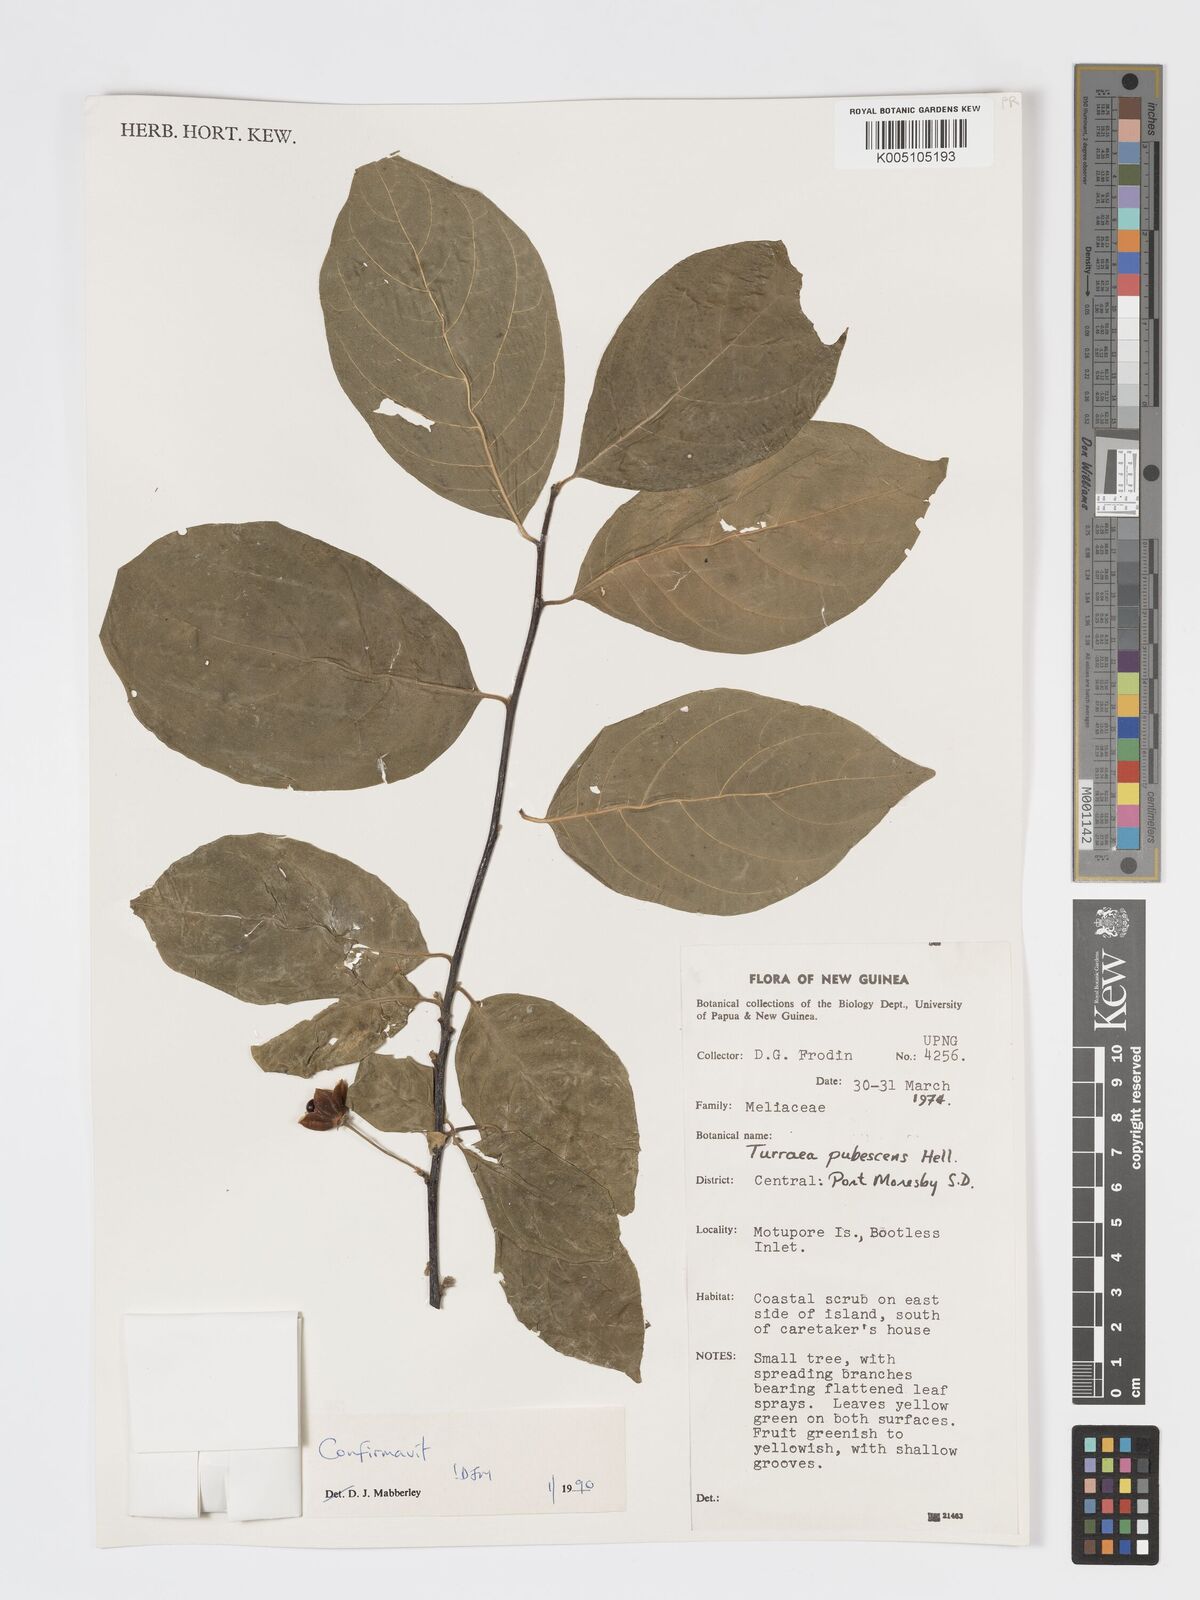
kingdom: Plantae
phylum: Tracheophyta
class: Magnoliopsida
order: Sapindales
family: Meliaceae
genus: Turraea
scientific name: Turraea
